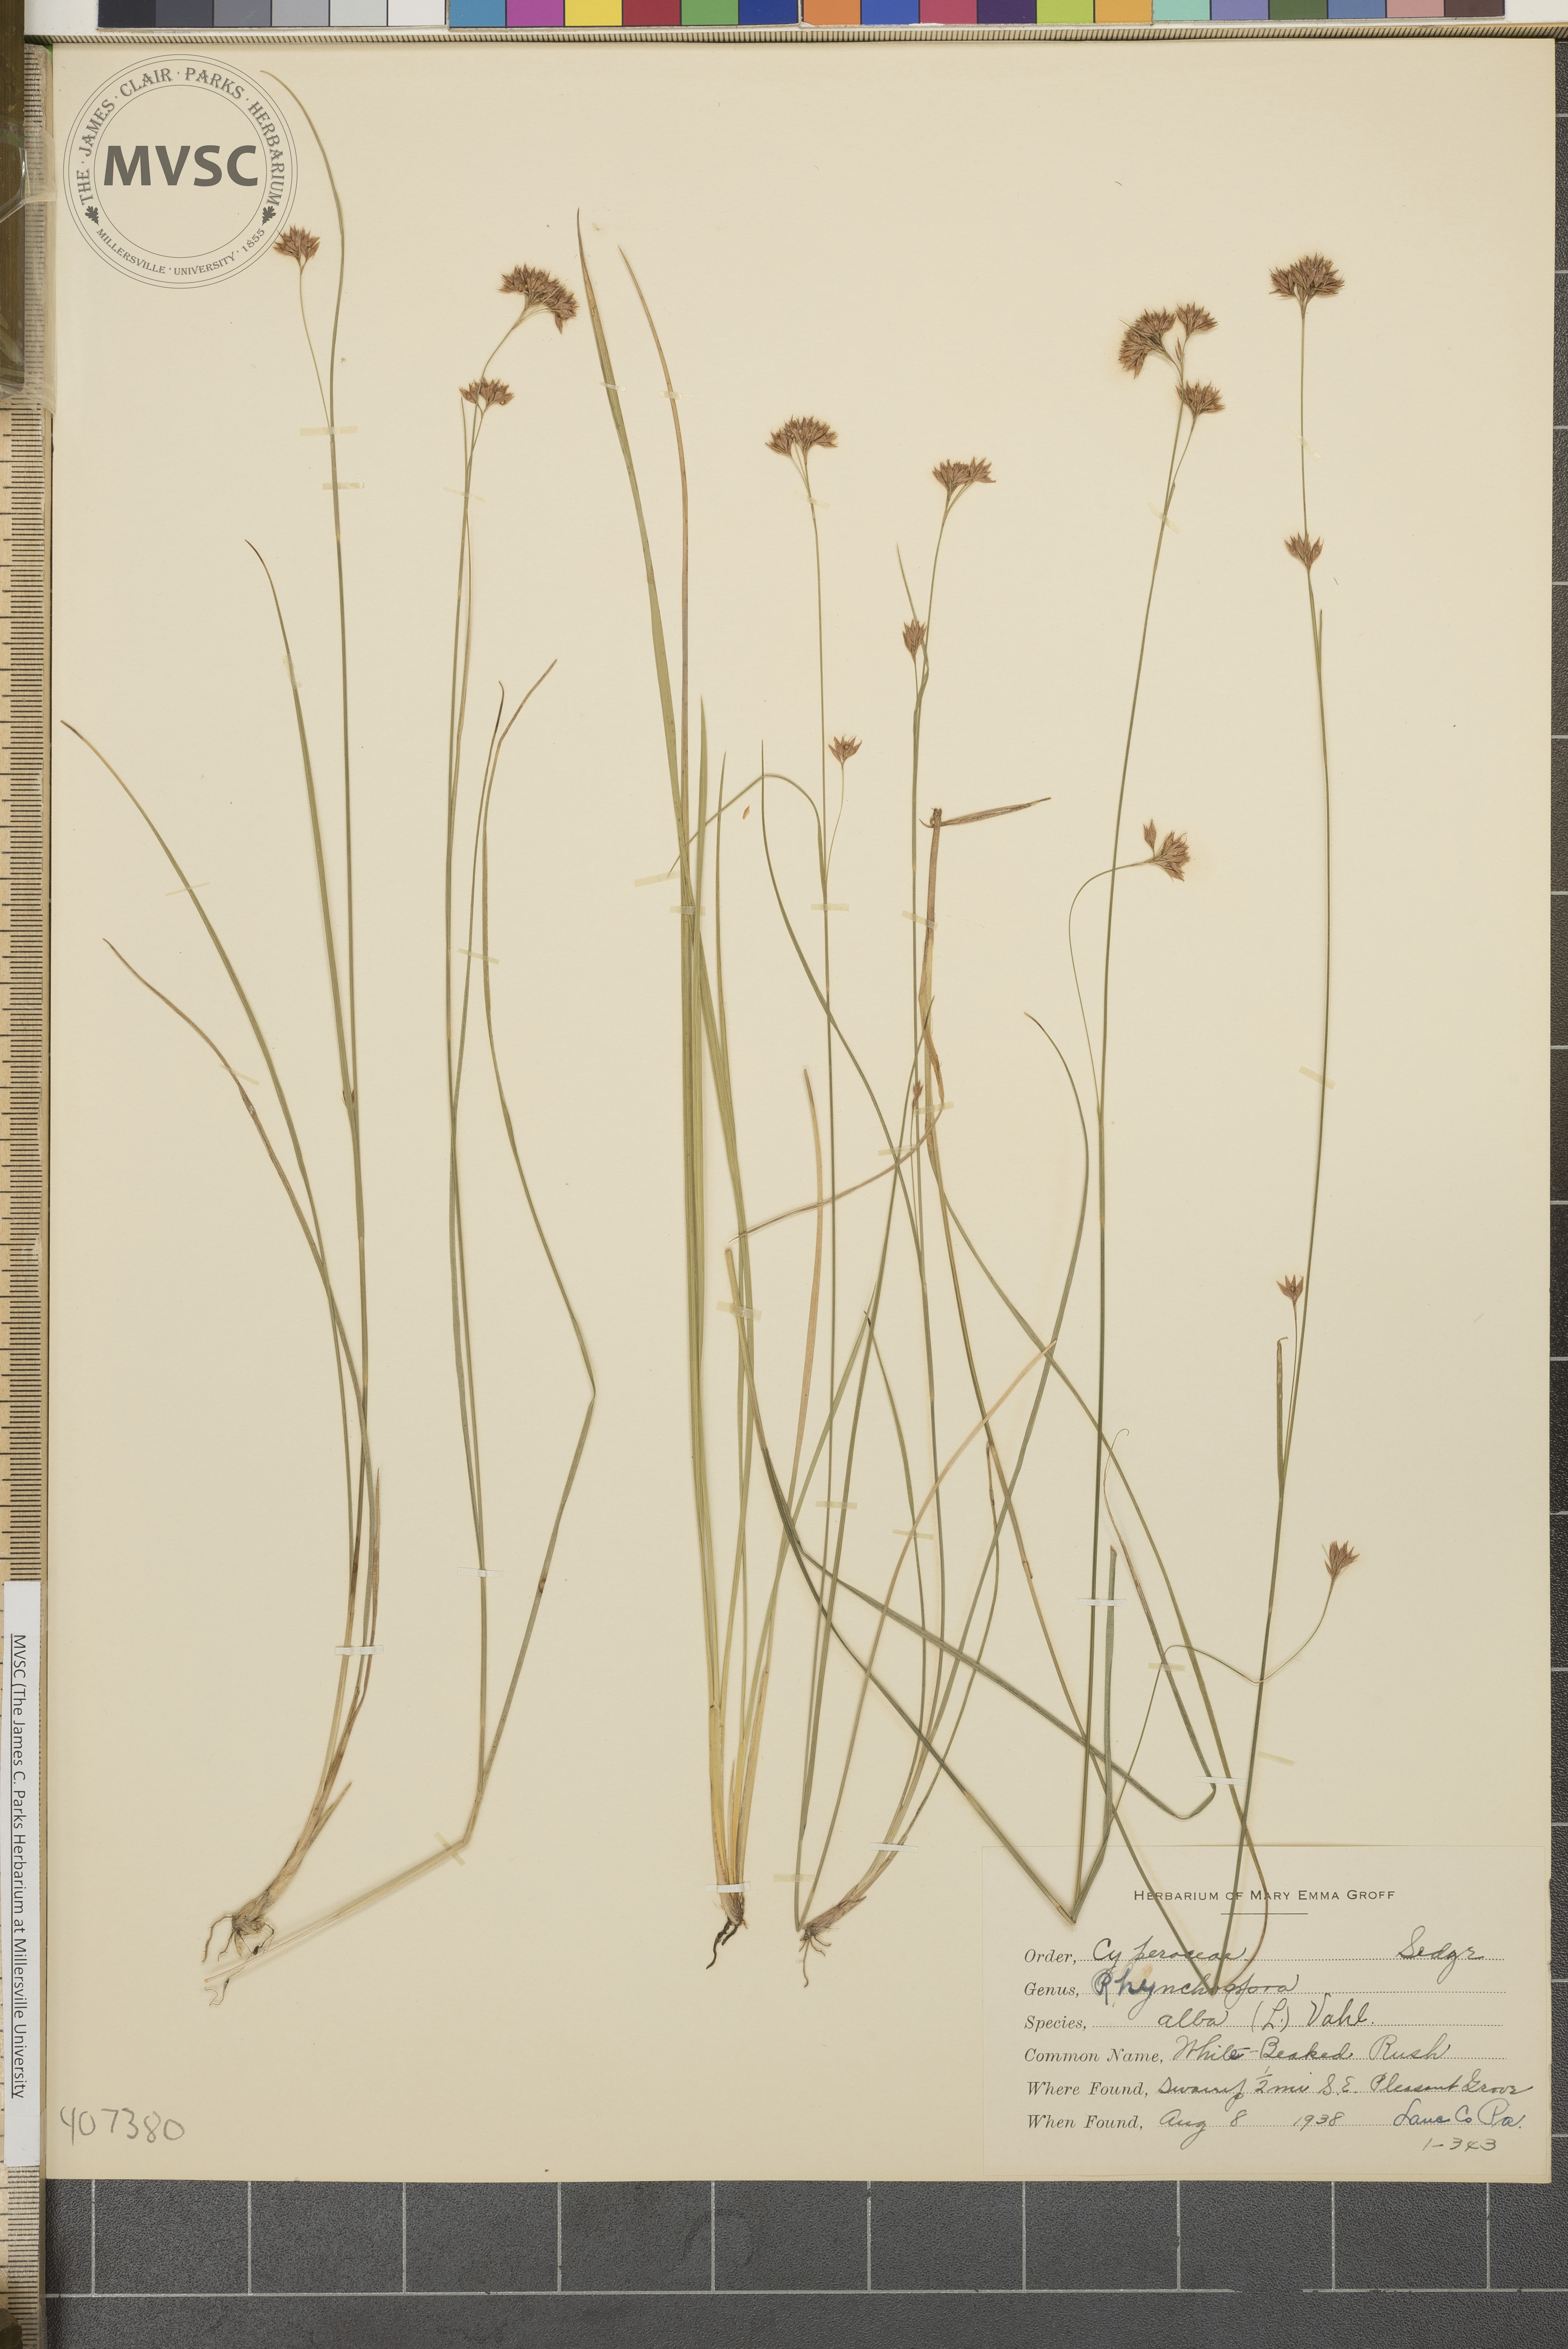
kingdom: Plantae
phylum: Tracheophyta
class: Liliopsida
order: Poales
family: Cyperaceae
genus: Rhynchospora
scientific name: Rhynchospora alba
